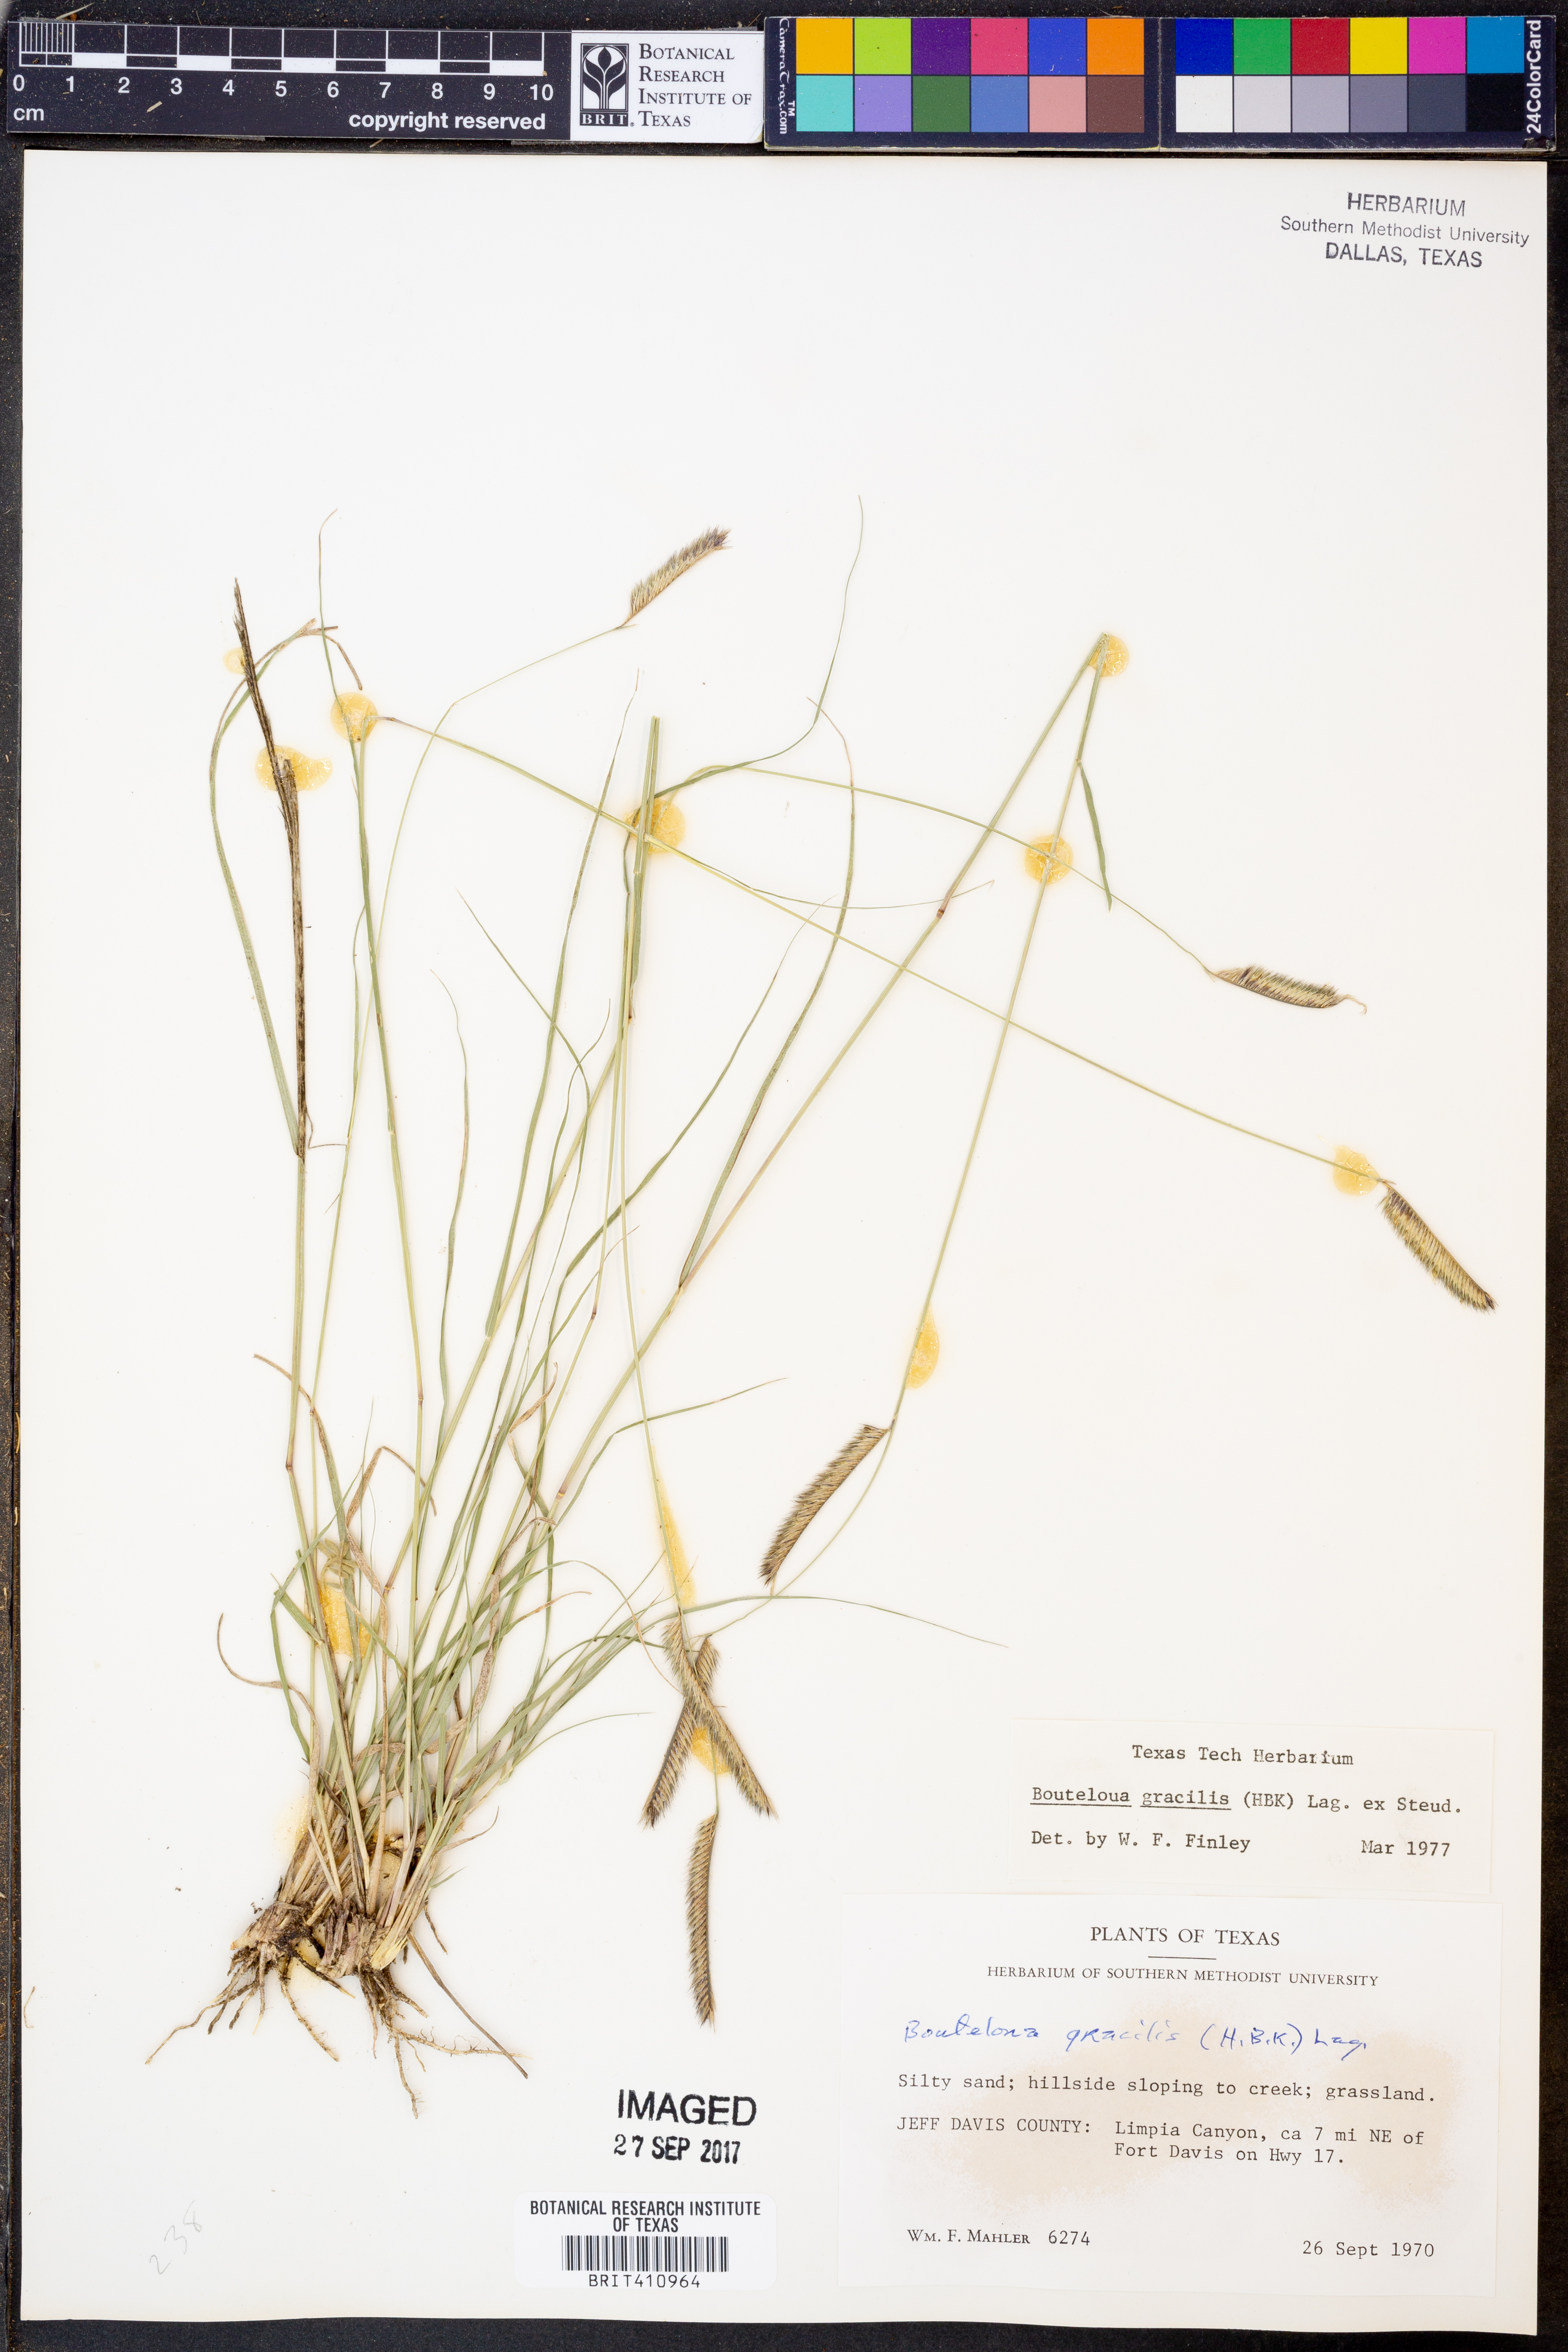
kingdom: Plantae
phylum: Tracheophyta
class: Liliopsida
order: Poales
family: Poaceae
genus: Bouteloua
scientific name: Bouteloua gracilis
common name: Blue grama
